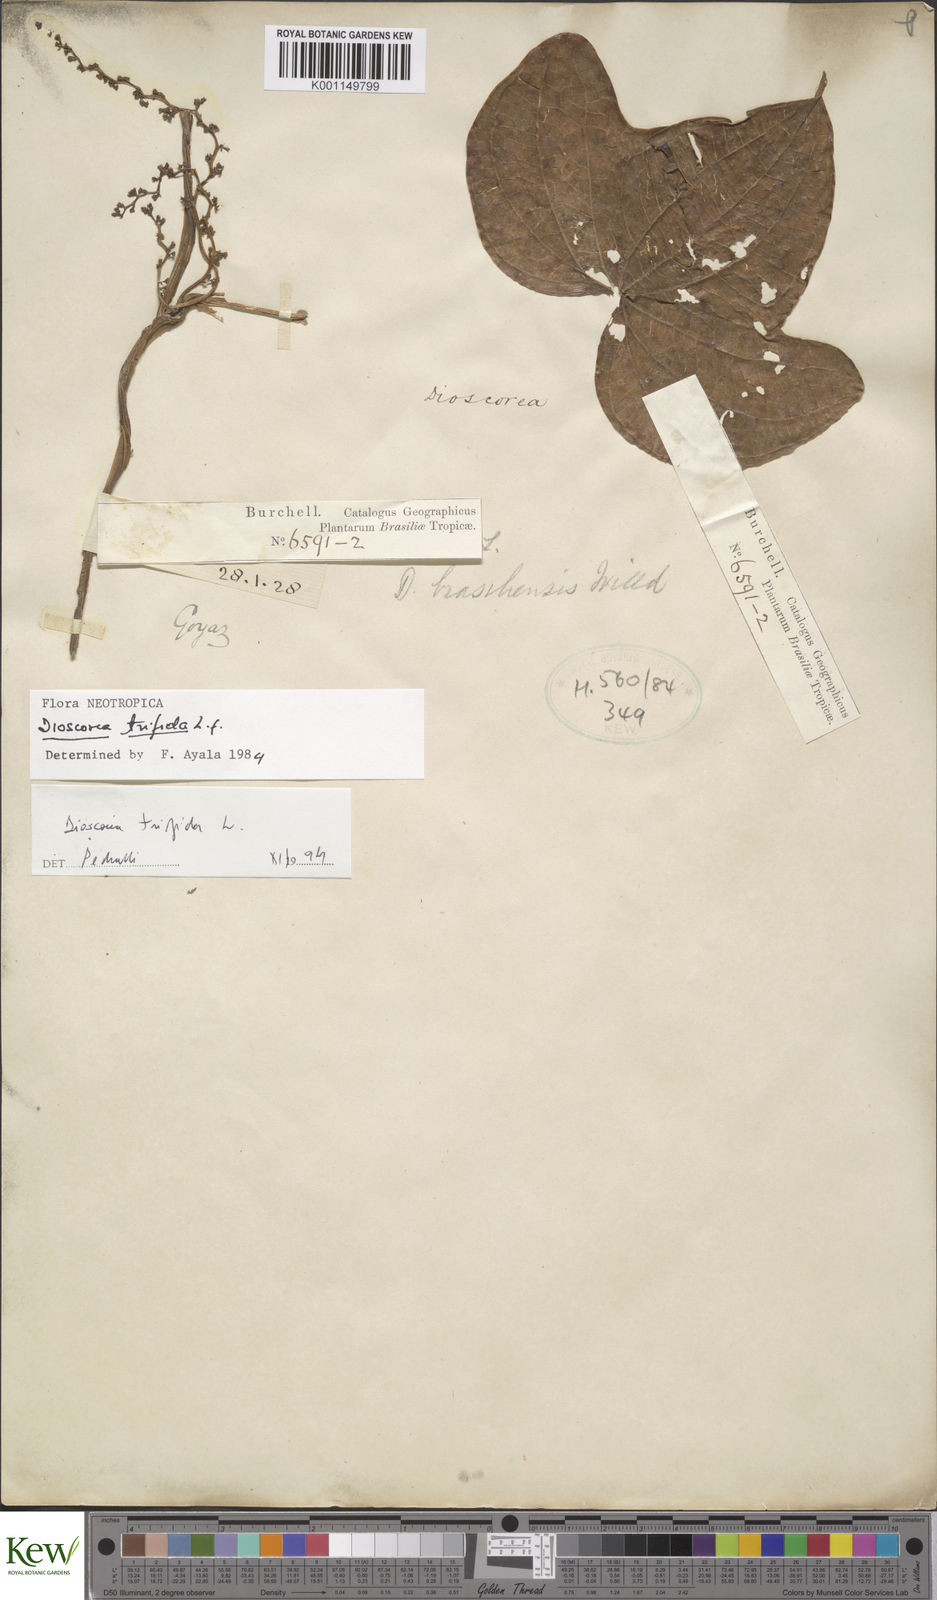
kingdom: Plantae
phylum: Tracheophyta
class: Liliopsida
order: Dioscoreales
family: Dioscoreaceae
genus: Dioscorea
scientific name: Dioscorea trifida
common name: Cush-cush
